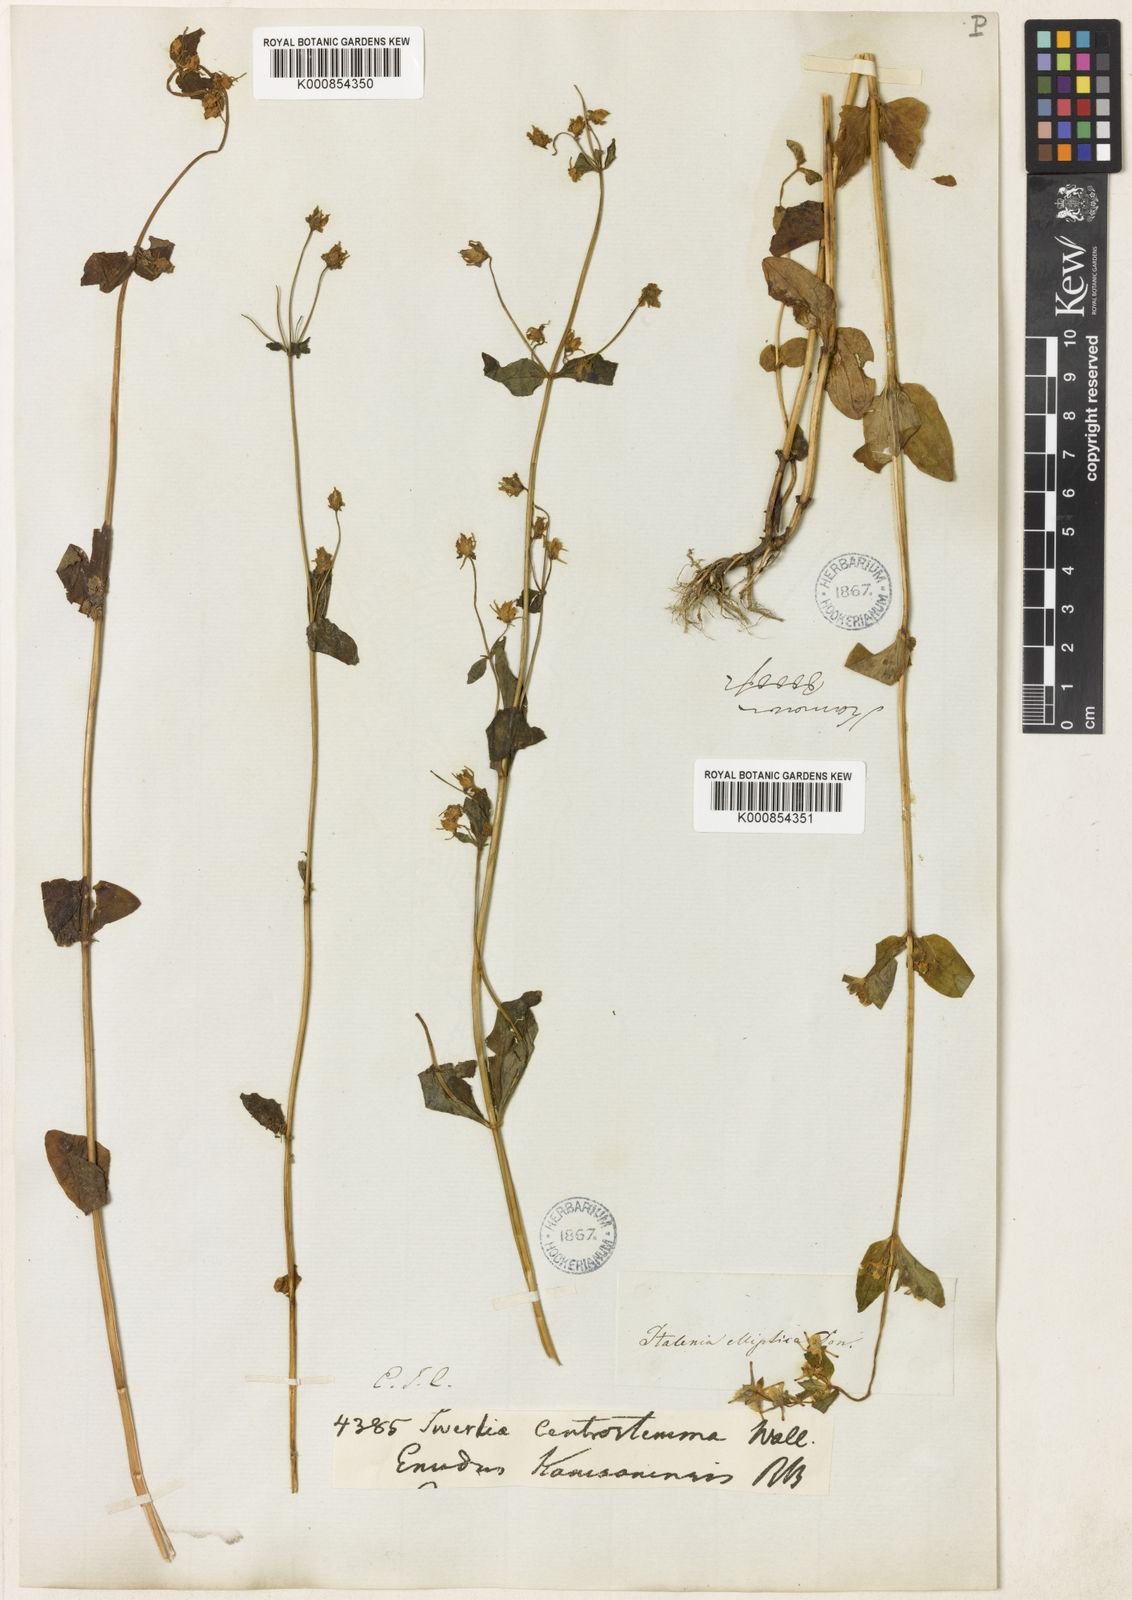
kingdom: Plantae
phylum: Tracheophyta
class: Magnoliopsida
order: Gentianales
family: Gentianaceae
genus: Halenia
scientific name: Halenia elliptica
